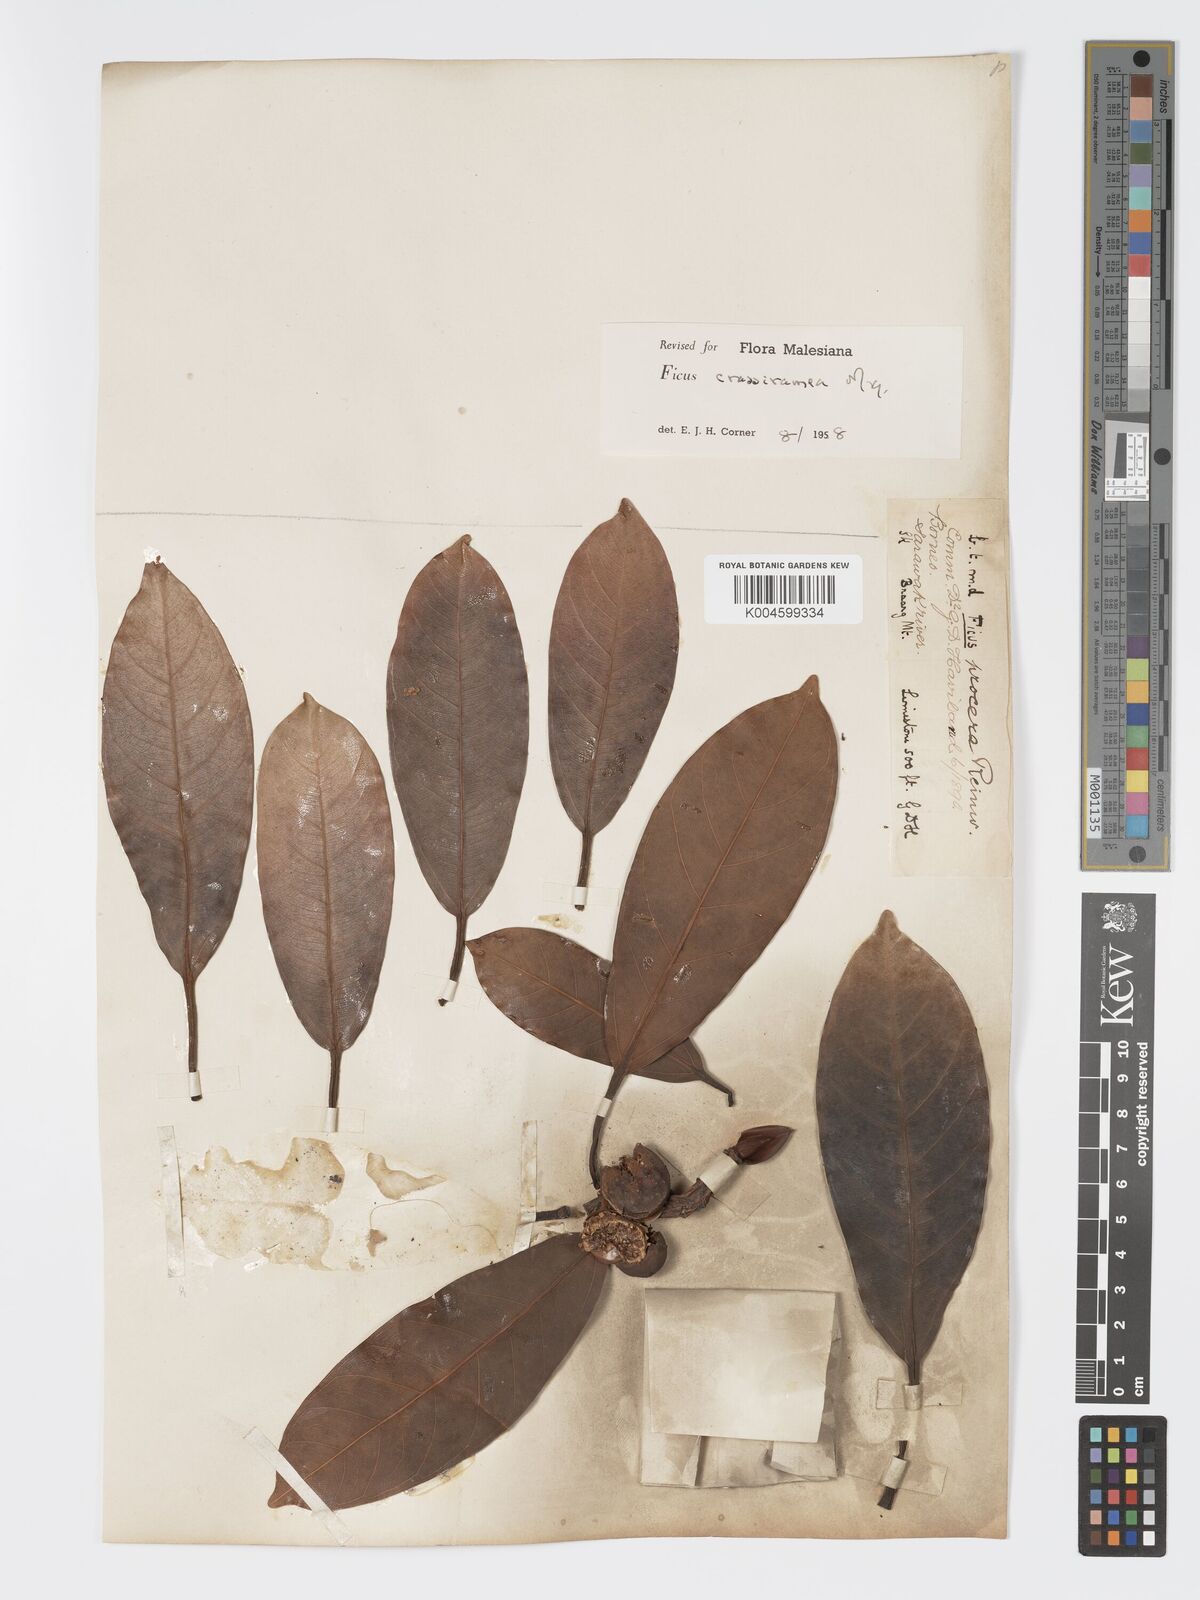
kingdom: Plantae
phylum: Tracheophyta
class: Magnoliopsida
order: Rosales
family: Moraceae
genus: Ficus
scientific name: Ficus crassiramea
